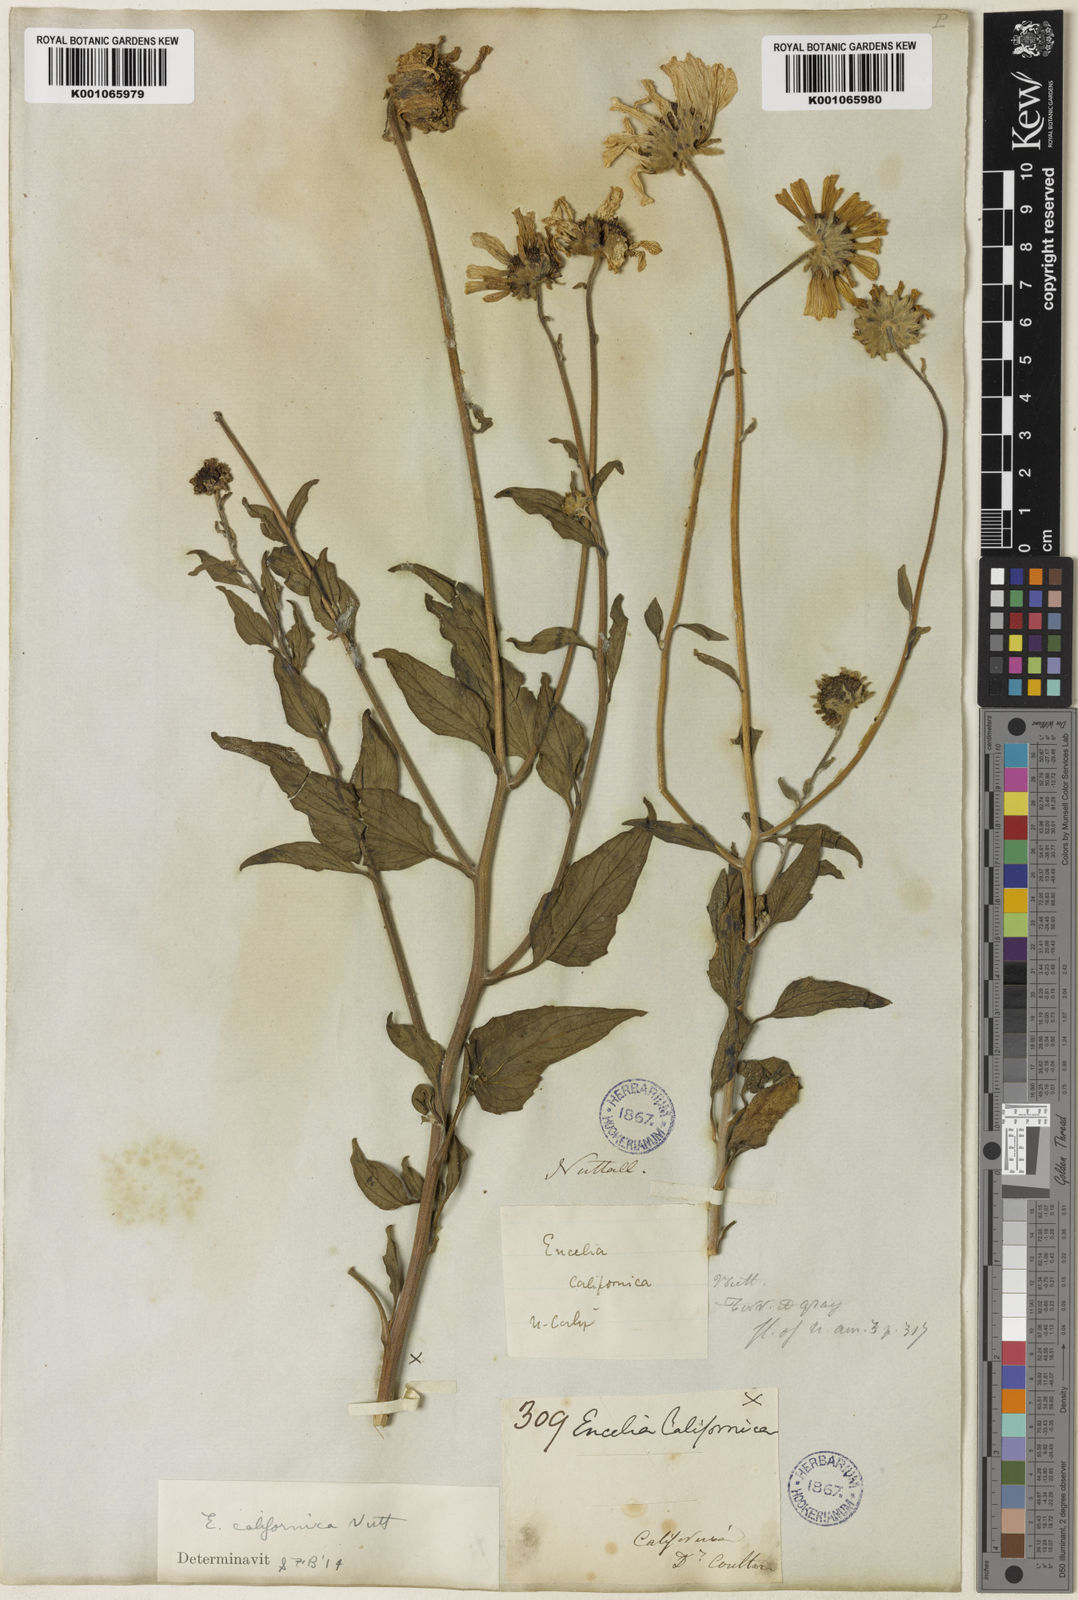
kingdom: Plantae
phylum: Tracheophyta
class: Magnoliopsida
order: Asterales
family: Asteraceae
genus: Encelia
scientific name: Encelia californica
